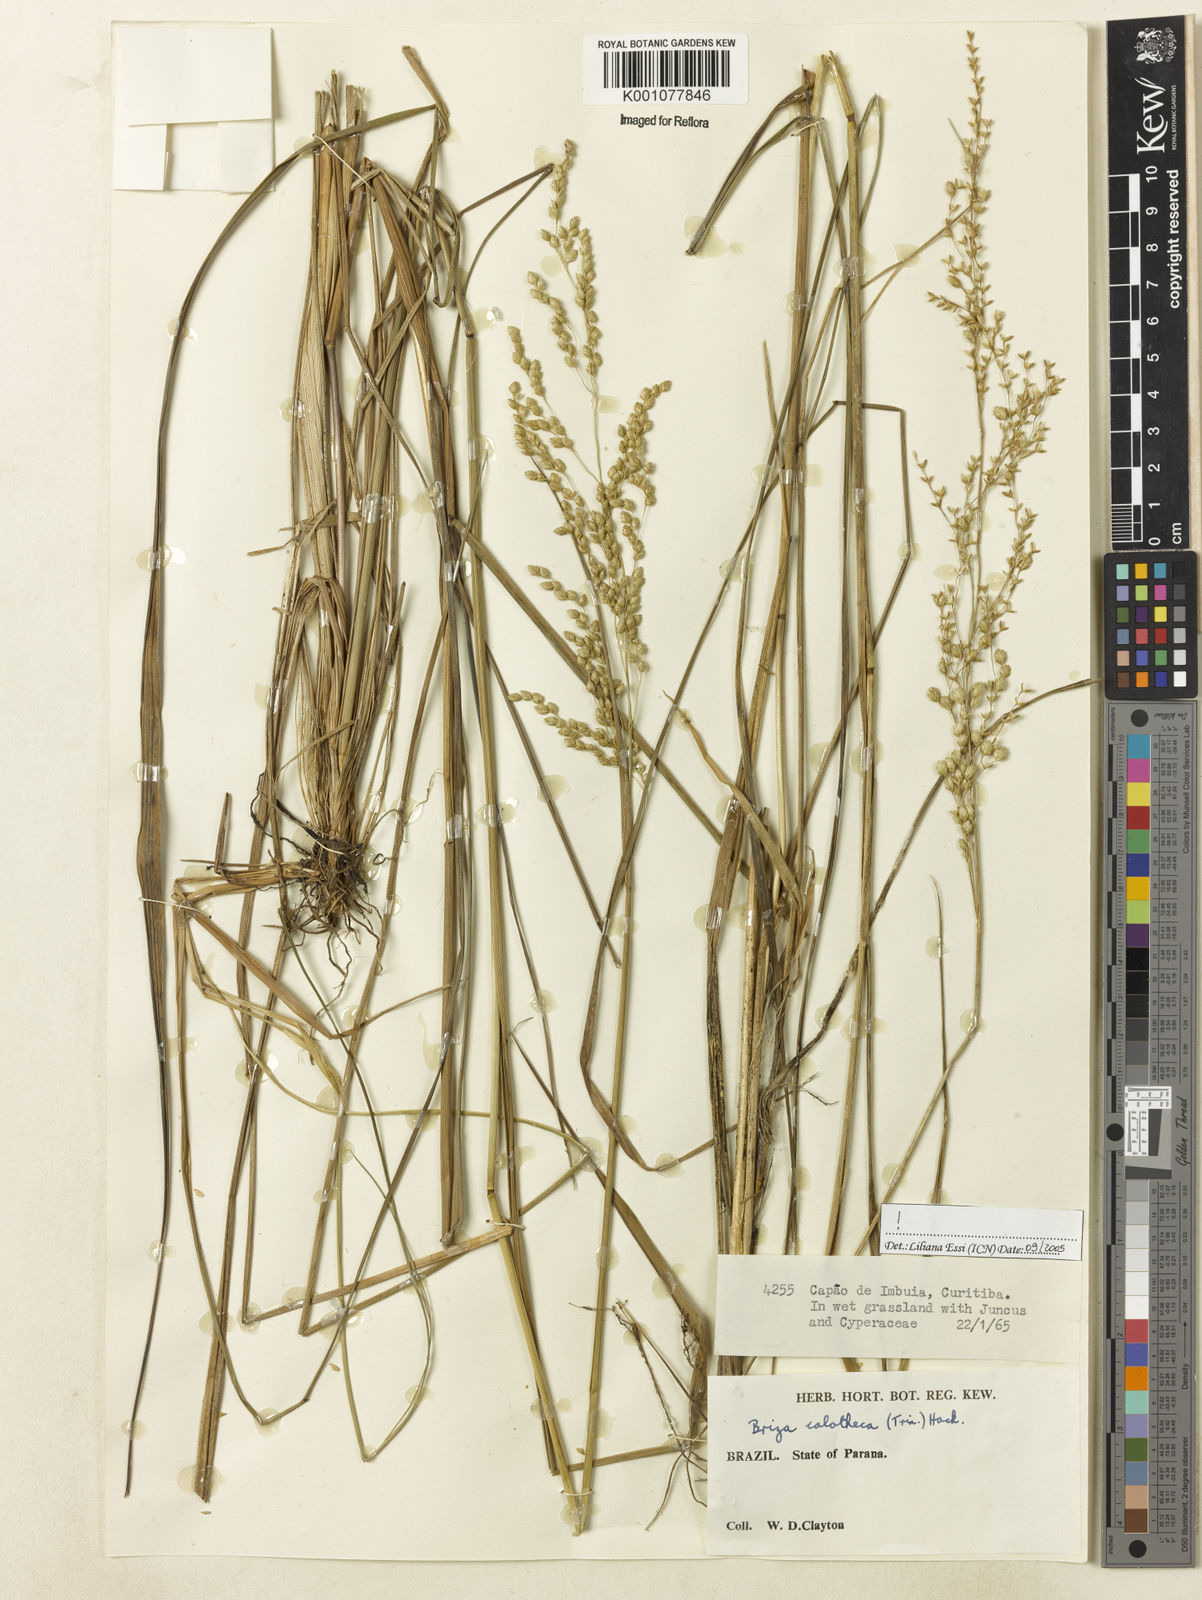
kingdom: Plantae
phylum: Tracheophyta
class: Liliopsida
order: Poales
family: Poaceae
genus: Poidium
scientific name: Poidium calotheca
